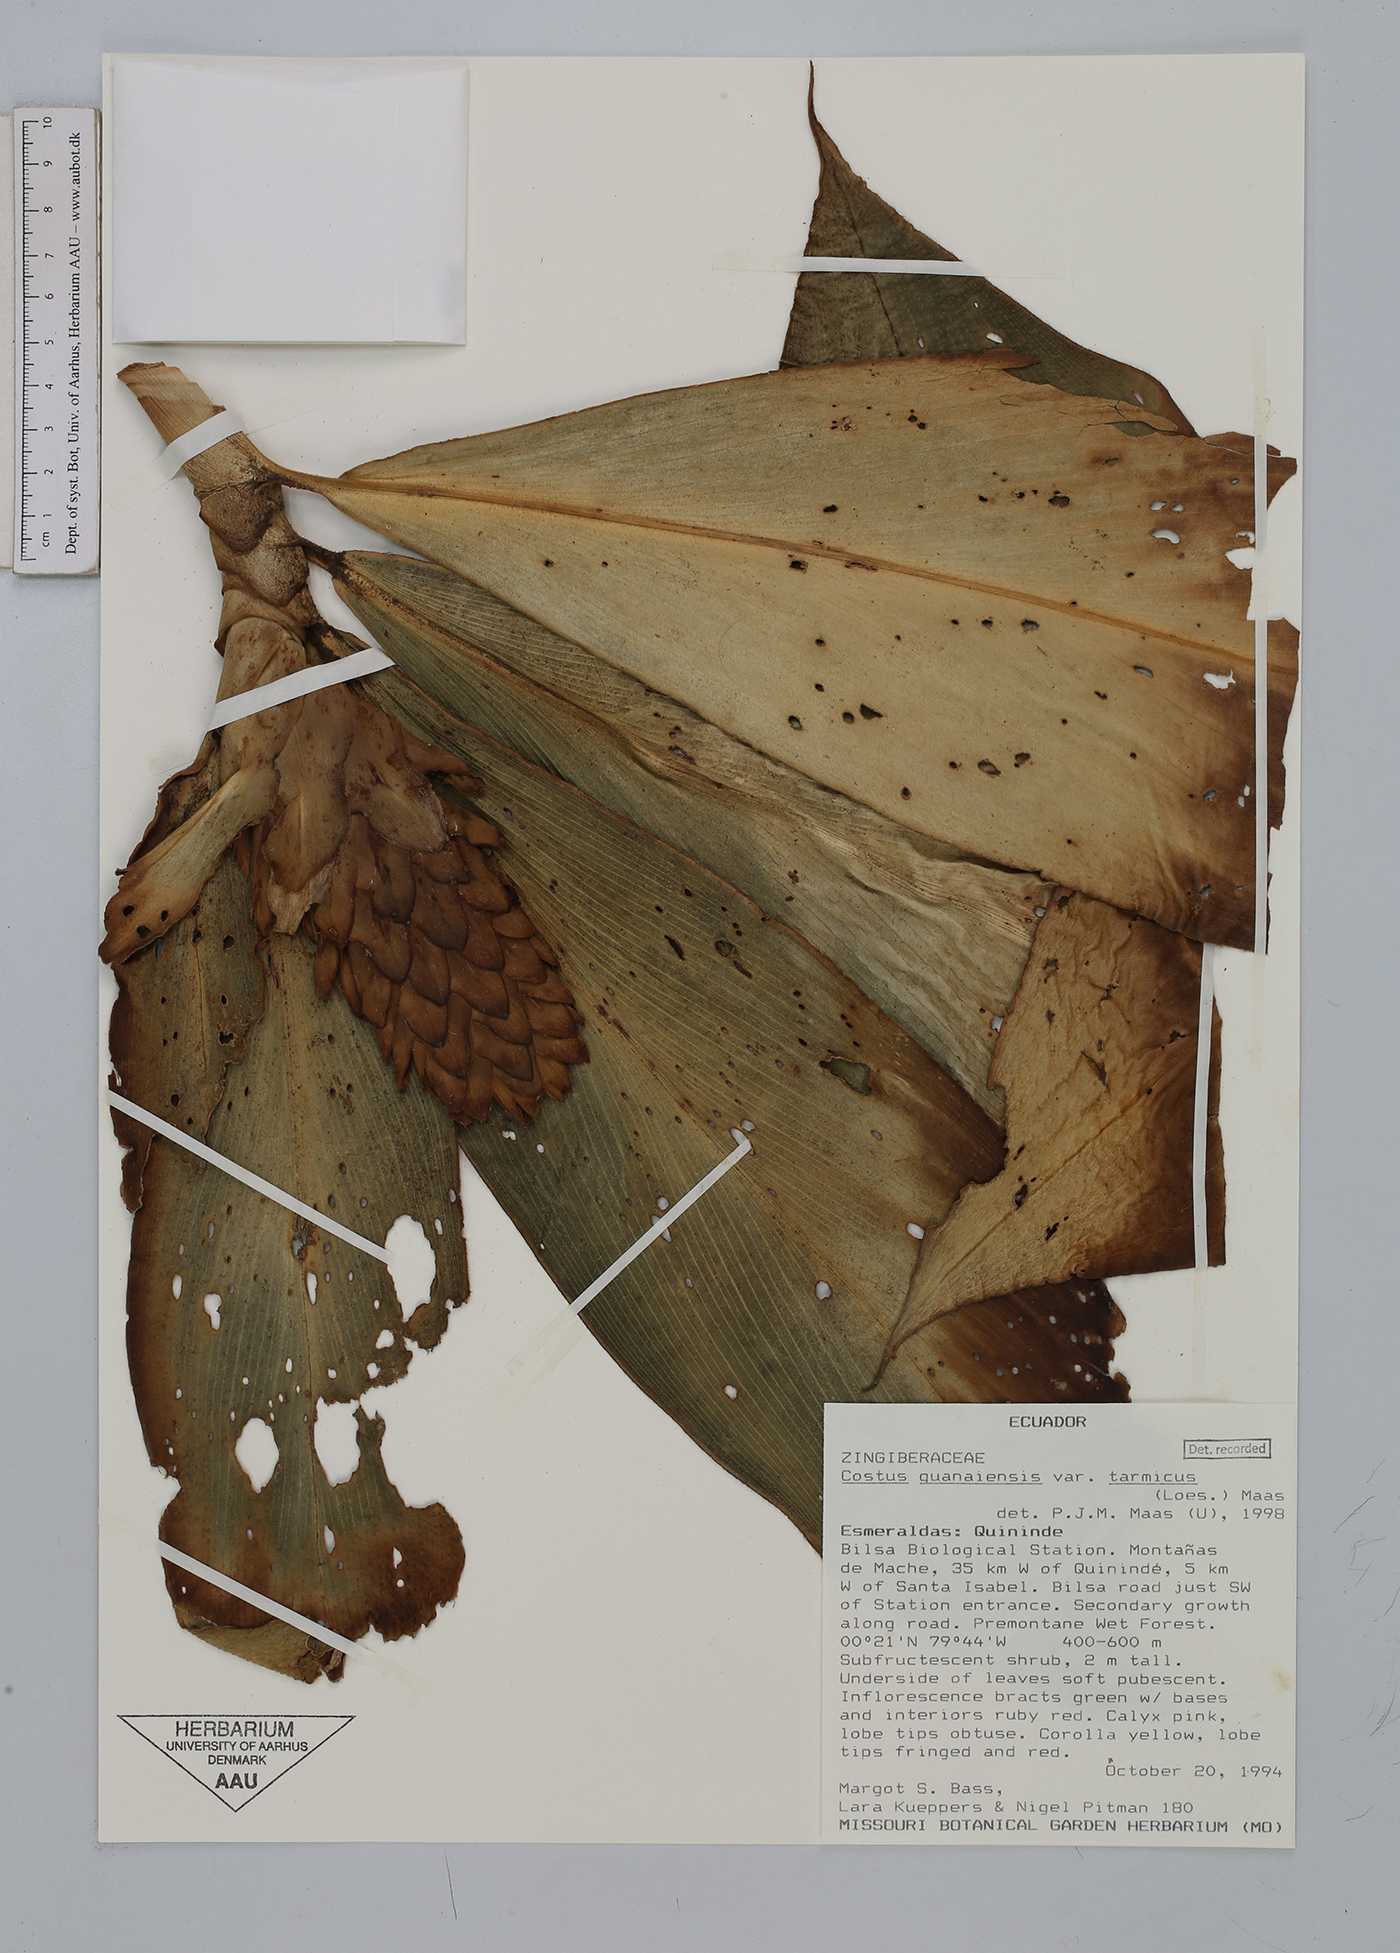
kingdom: Plantae
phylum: Tracheophyta
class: Liliopsida
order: Zingiberales
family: Costaceae
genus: Costus
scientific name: Costus guanaiensis
